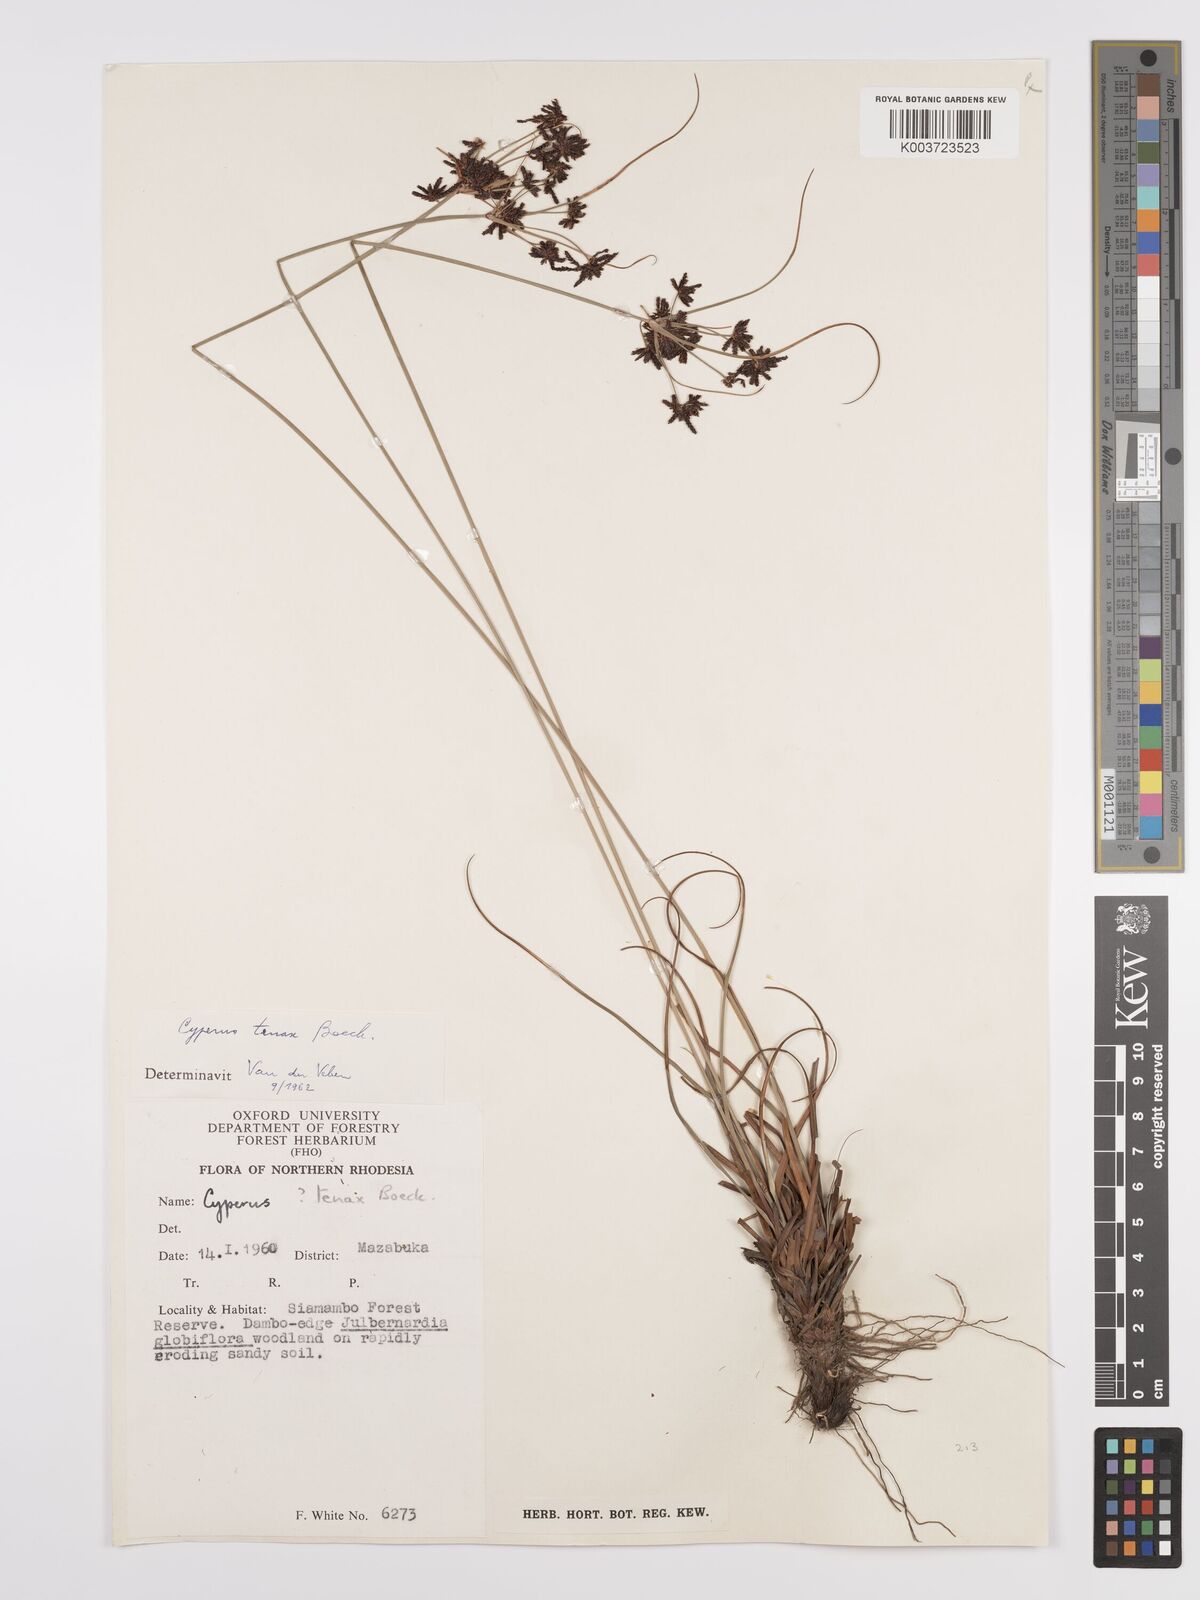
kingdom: Plantae
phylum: Tracheophyta
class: Liliopsida
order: Poales
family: Cyperaceae
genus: Cyperus
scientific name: Cyperus tenax
